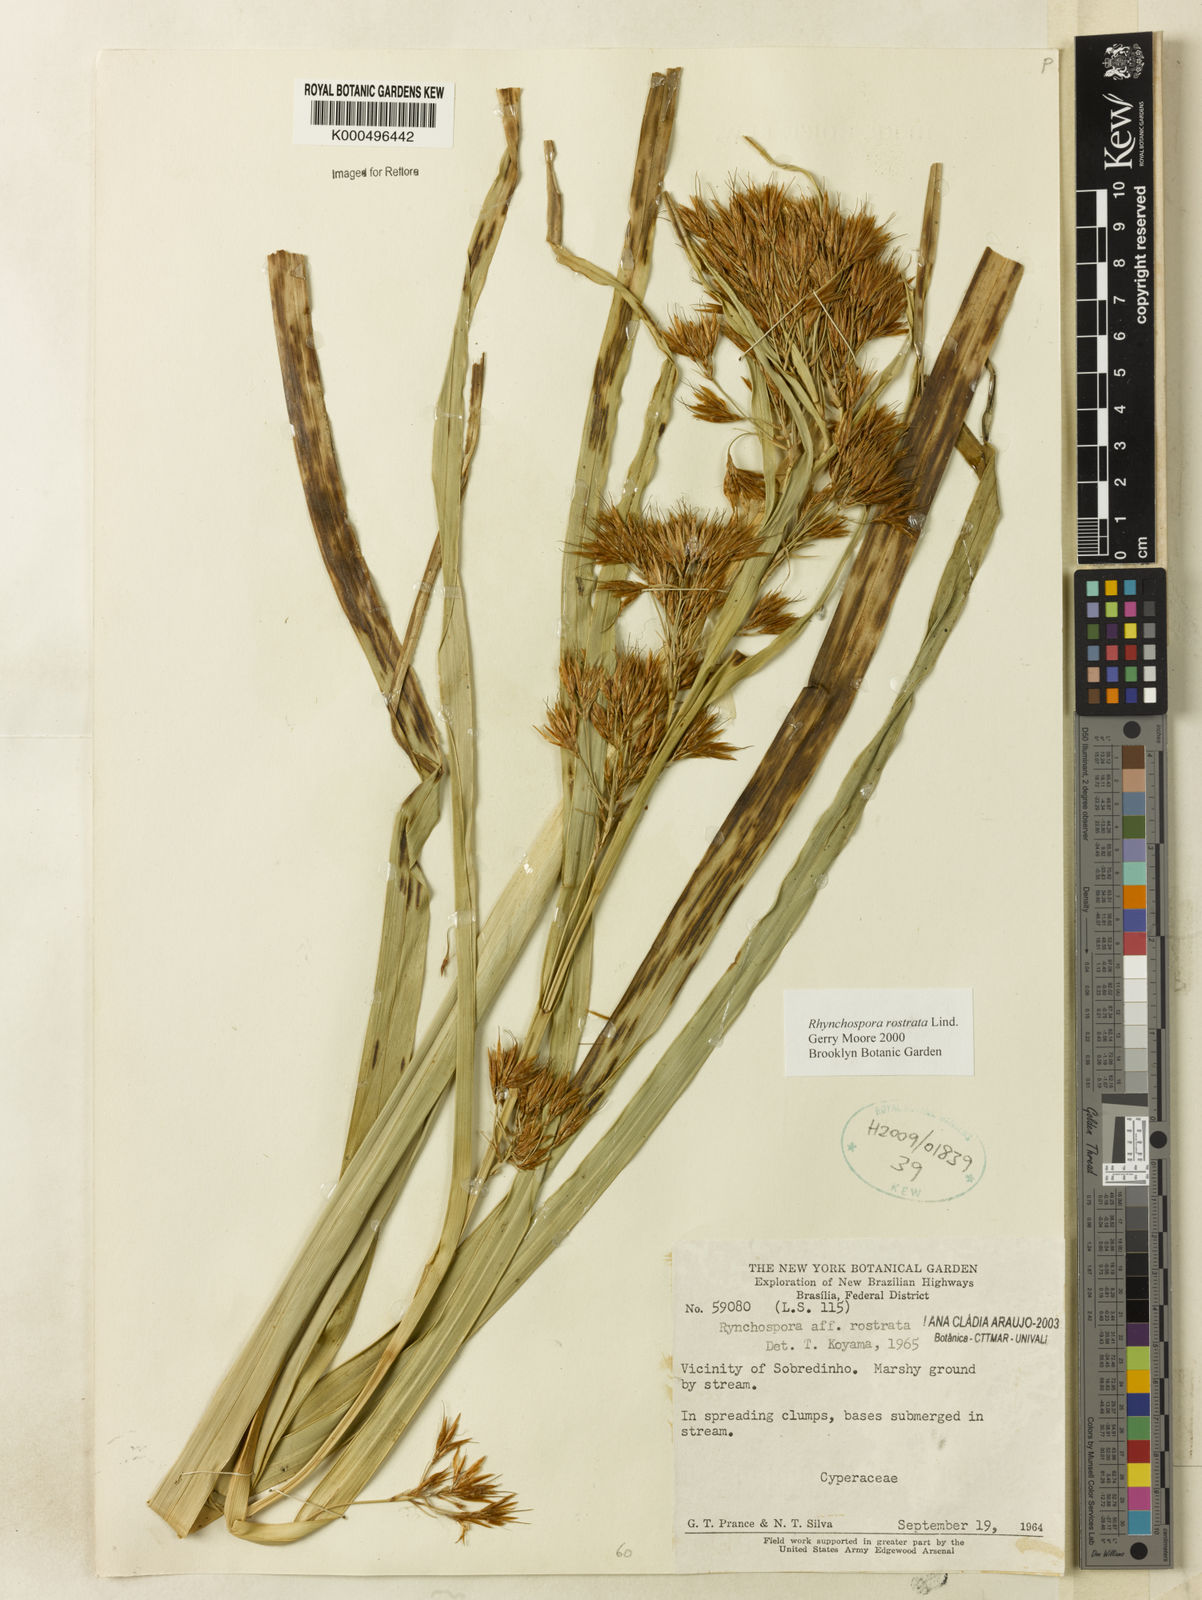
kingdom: Plantae
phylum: Tracheophyta
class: Liliopsida
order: Poales
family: Cyperaceae
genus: Rhynchospora
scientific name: Rhynchospora rostrata
